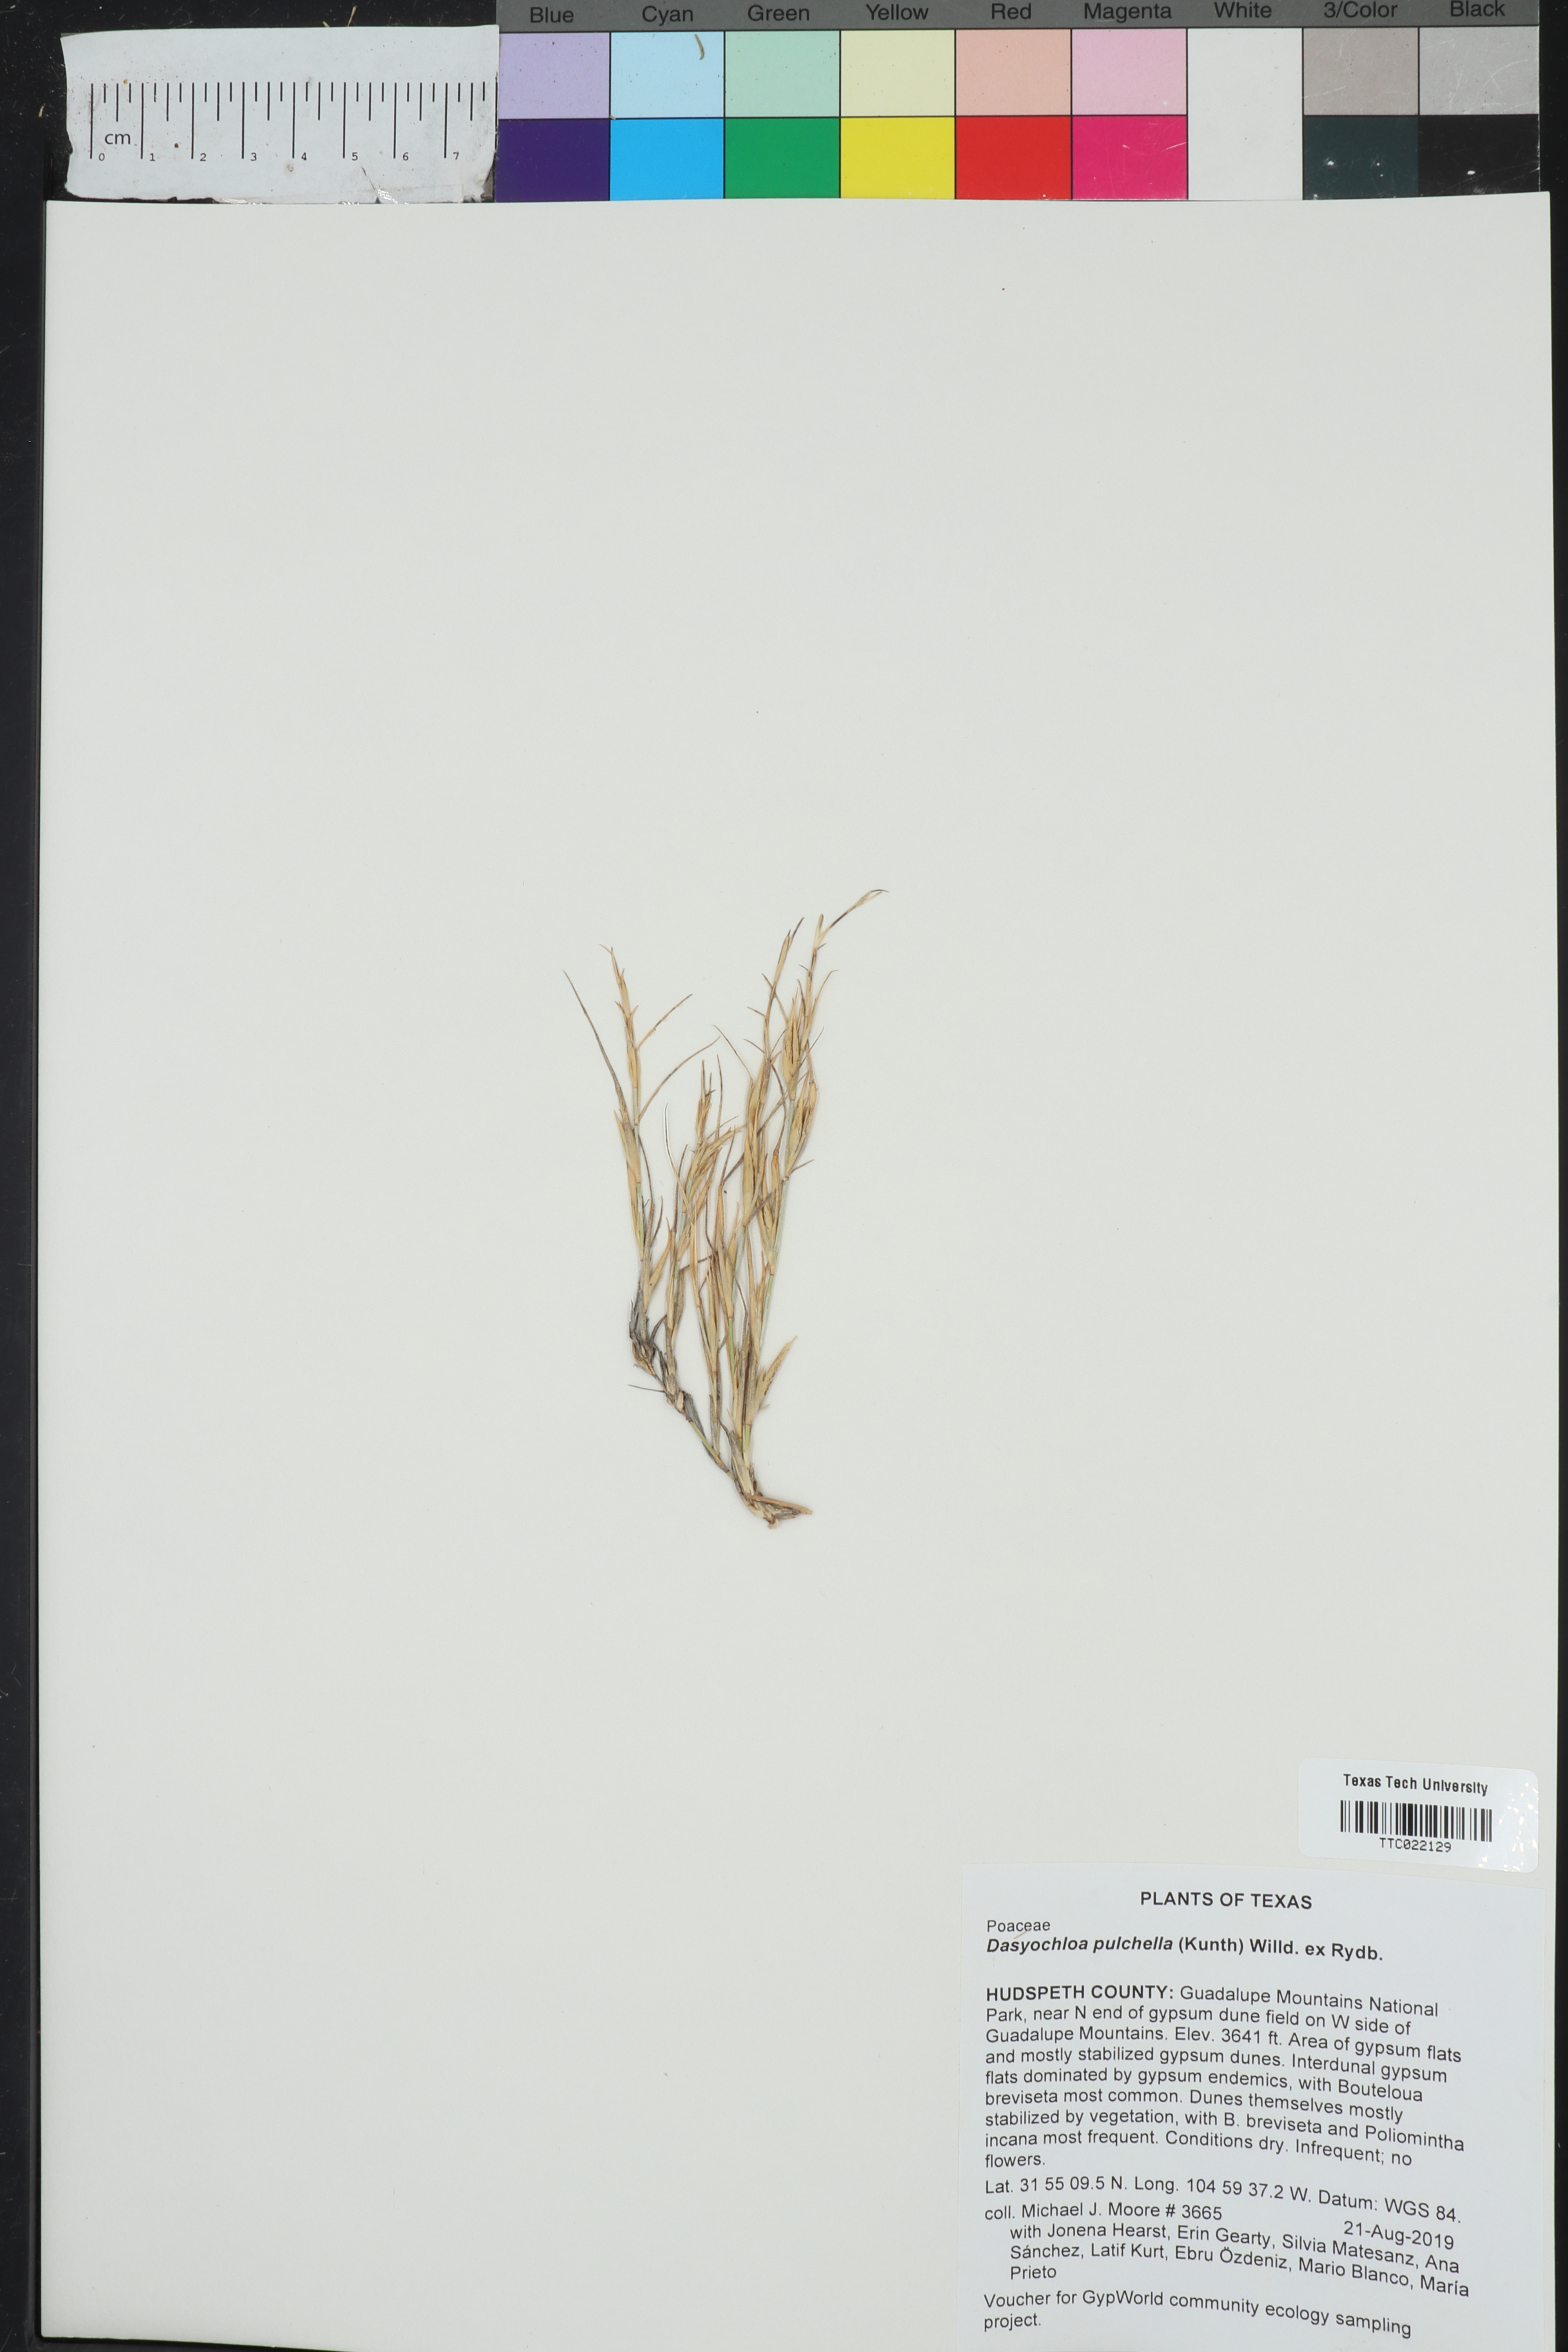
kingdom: Plantae
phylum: Tracheophyta
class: Liliopsida
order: Poales
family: Poaceae
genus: Munroa
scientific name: Munroa pulchella
